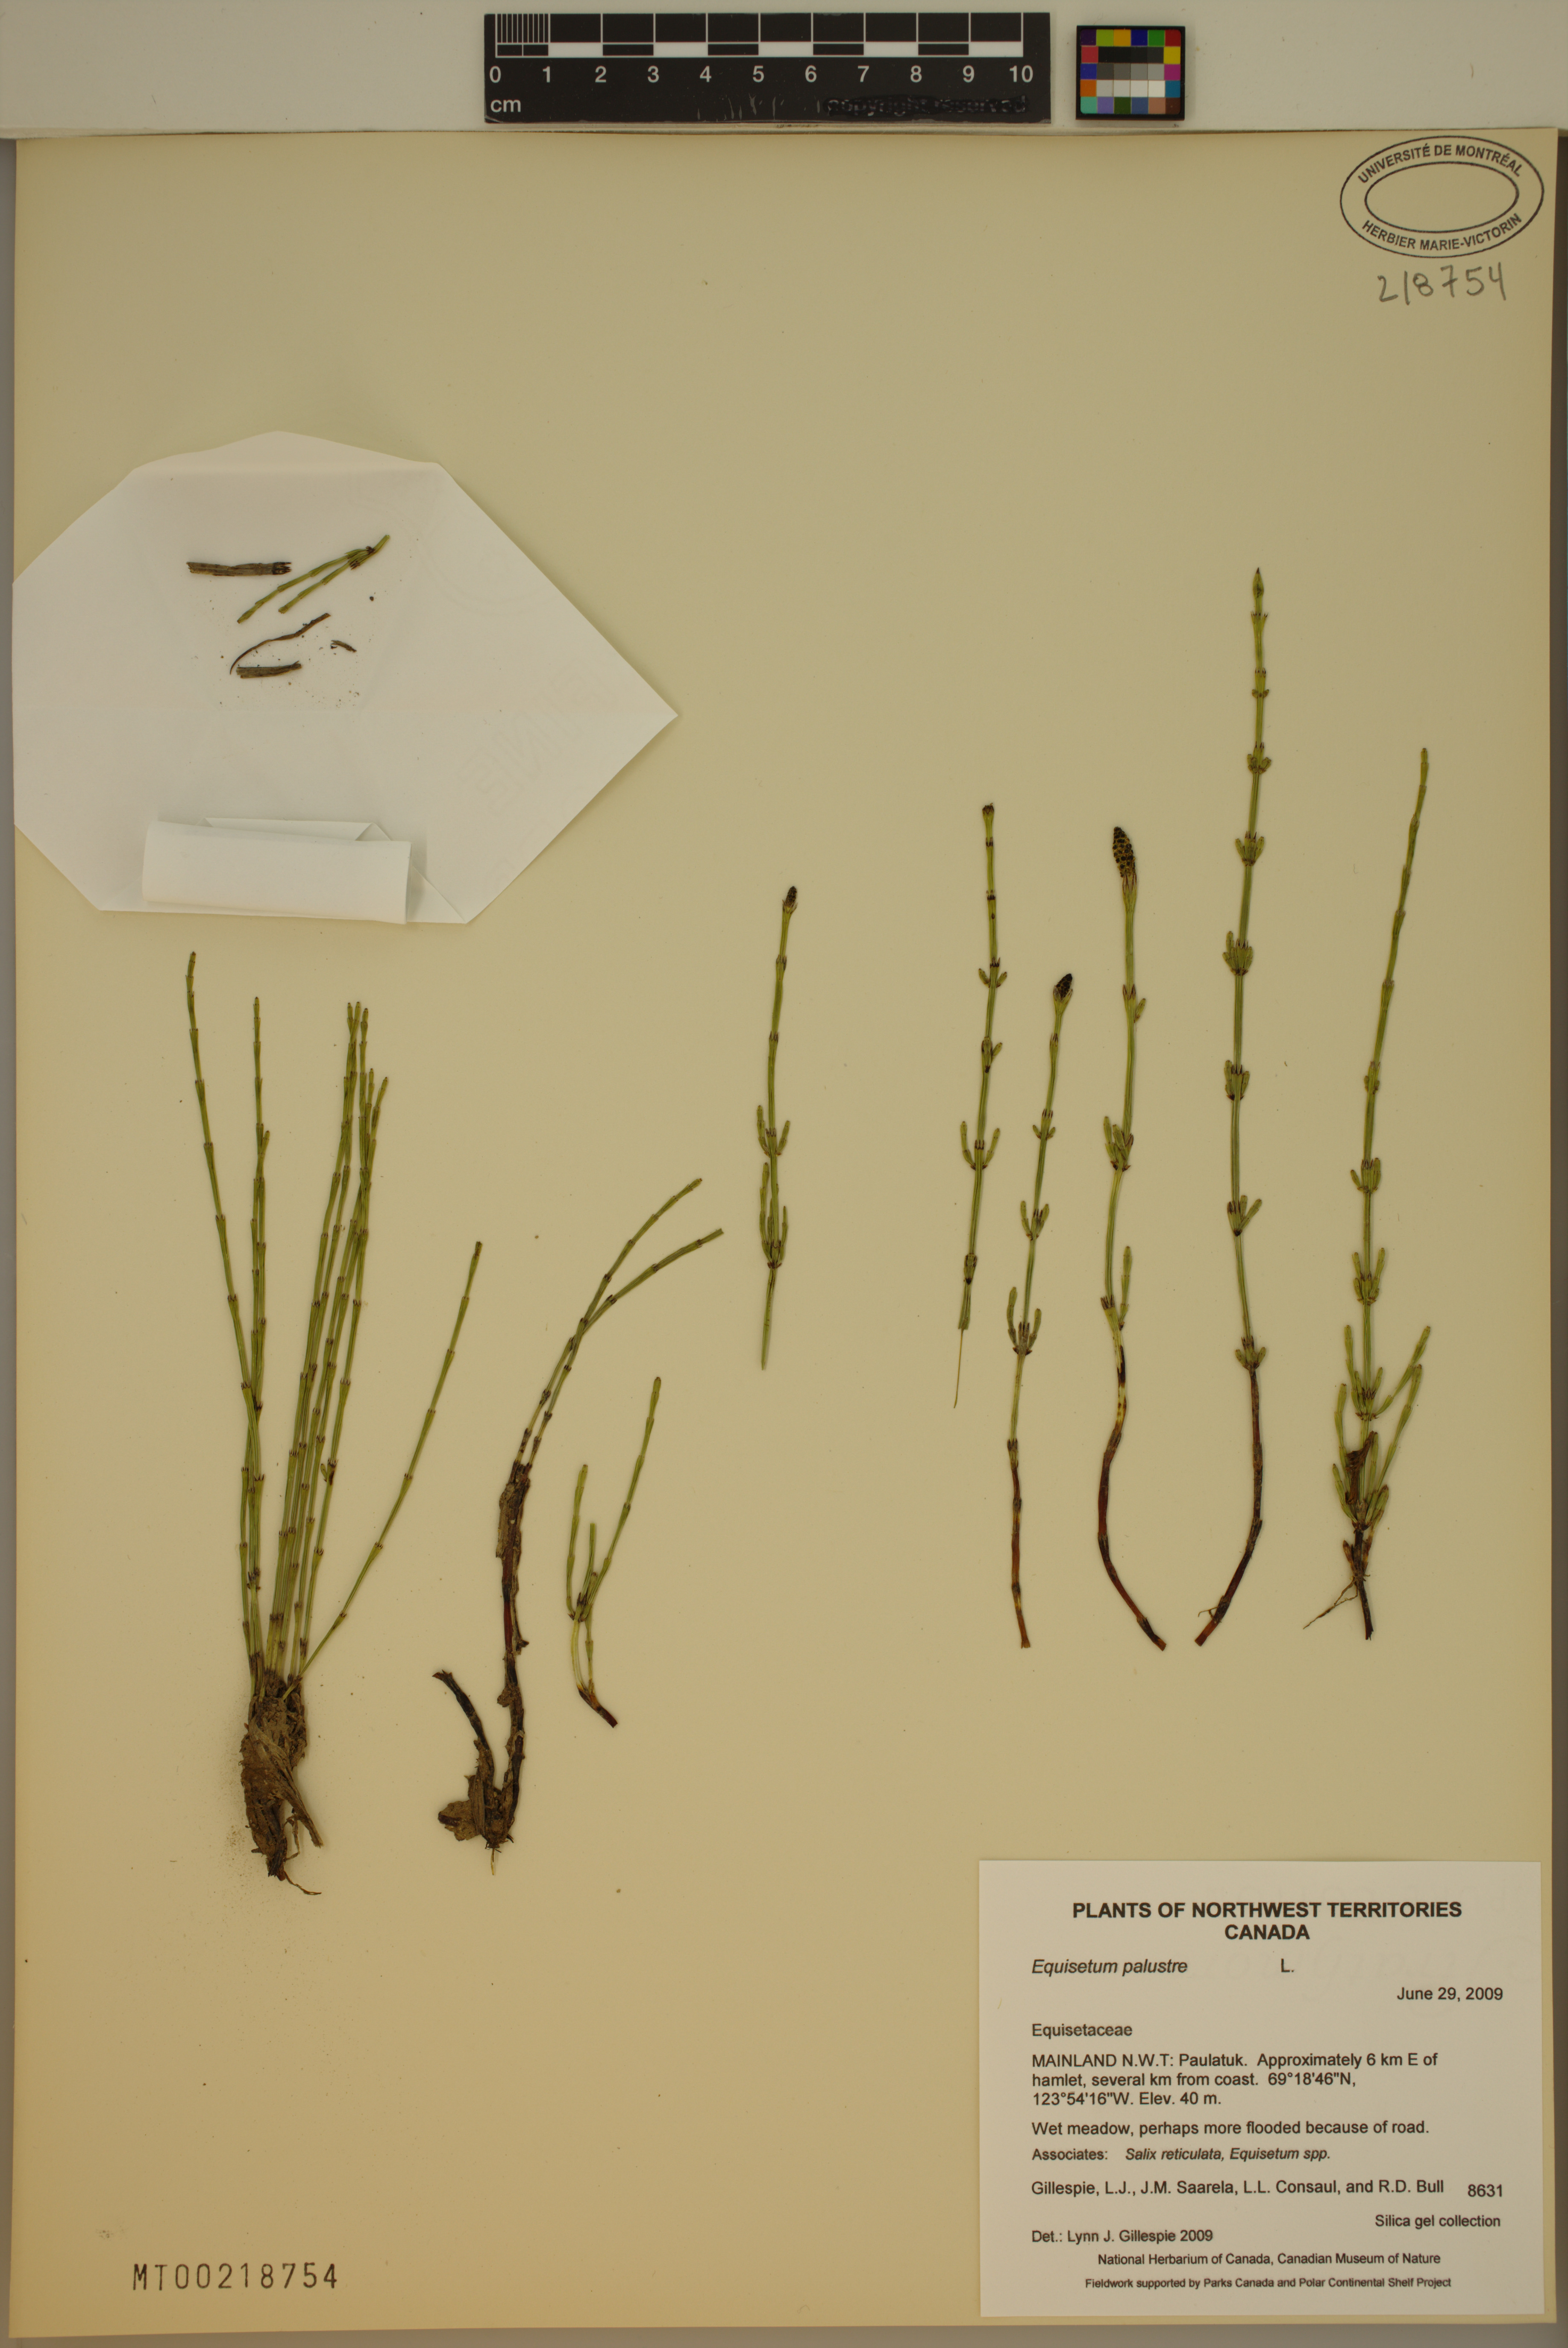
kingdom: Plantae
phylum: Tracheophyta
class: Polypodiopsida
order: Equisetales
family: Equisetaceae
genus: Equisetum
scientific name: Equisetum palustre
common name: Marsh horsetail
